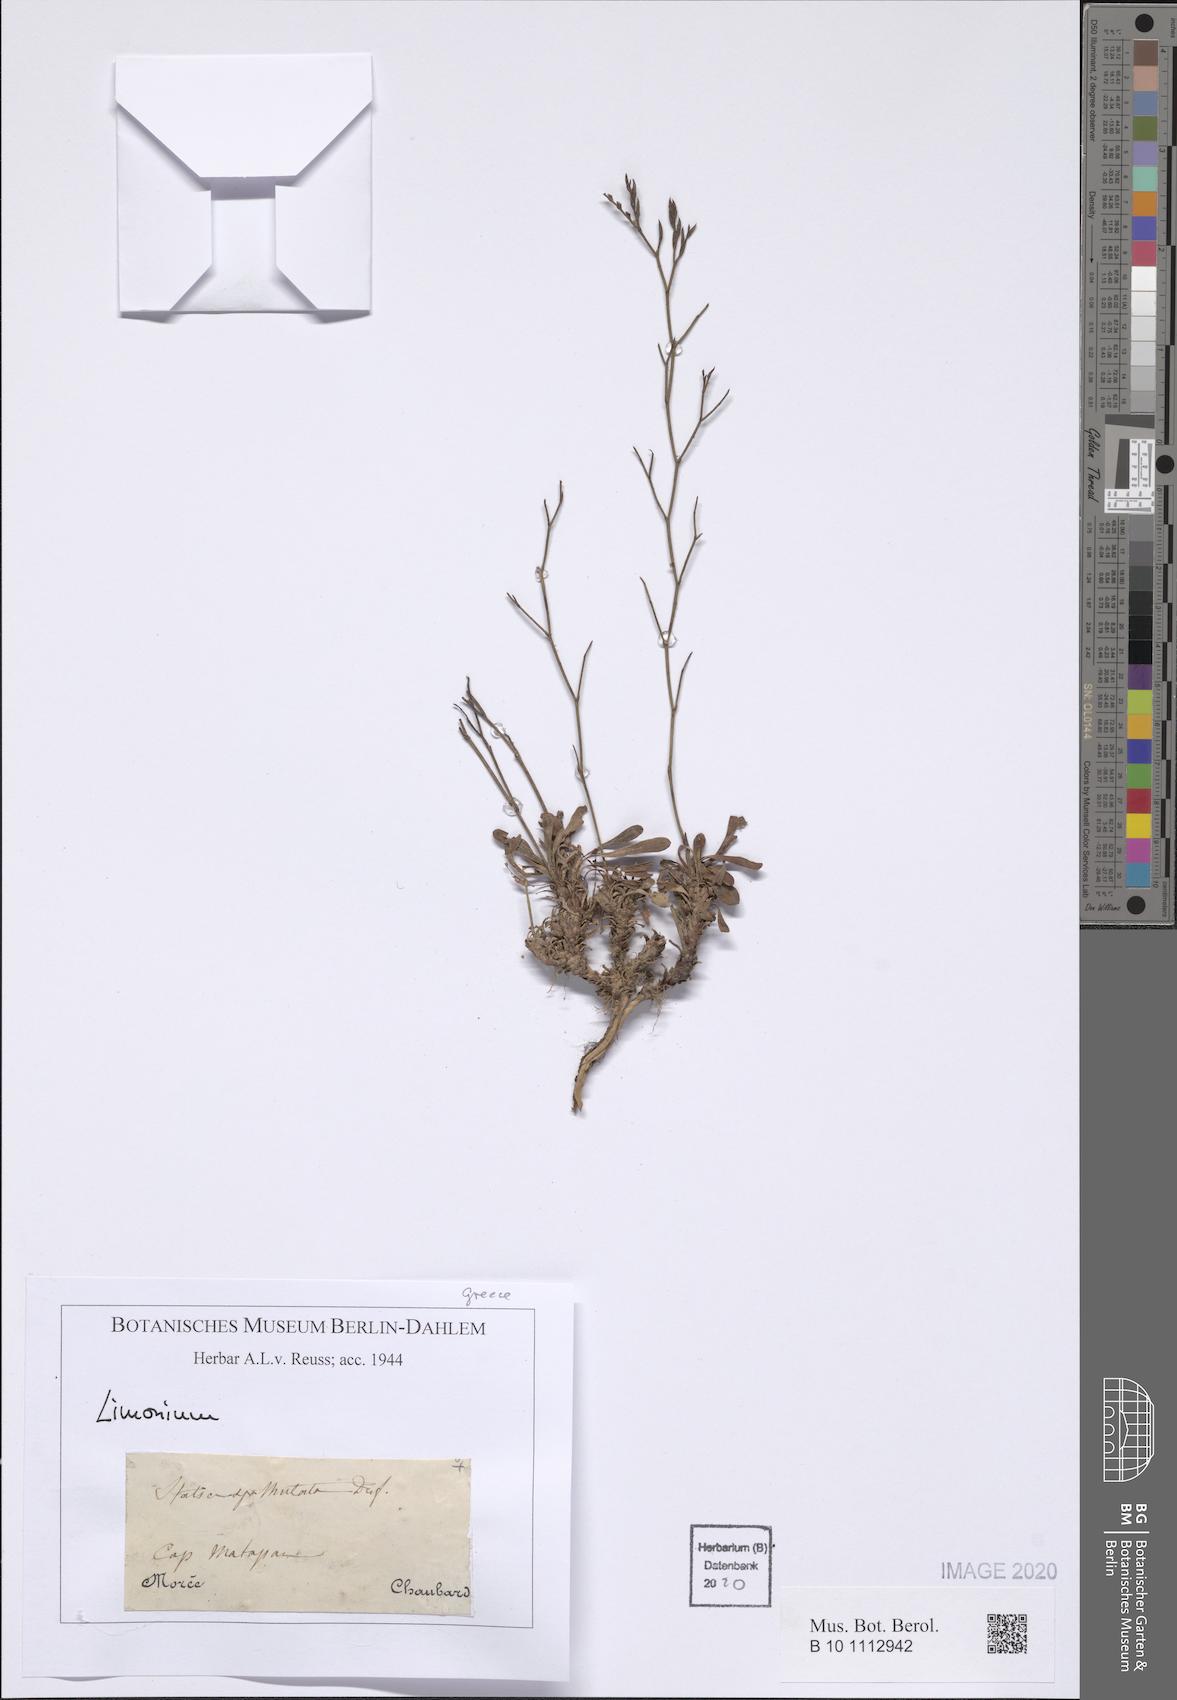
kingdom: Plantae
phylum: Tracheophyta
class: Magnoliopsida
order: Caryophyllales
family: Plumbaginaceae
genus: Limonium
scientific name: Limonium
